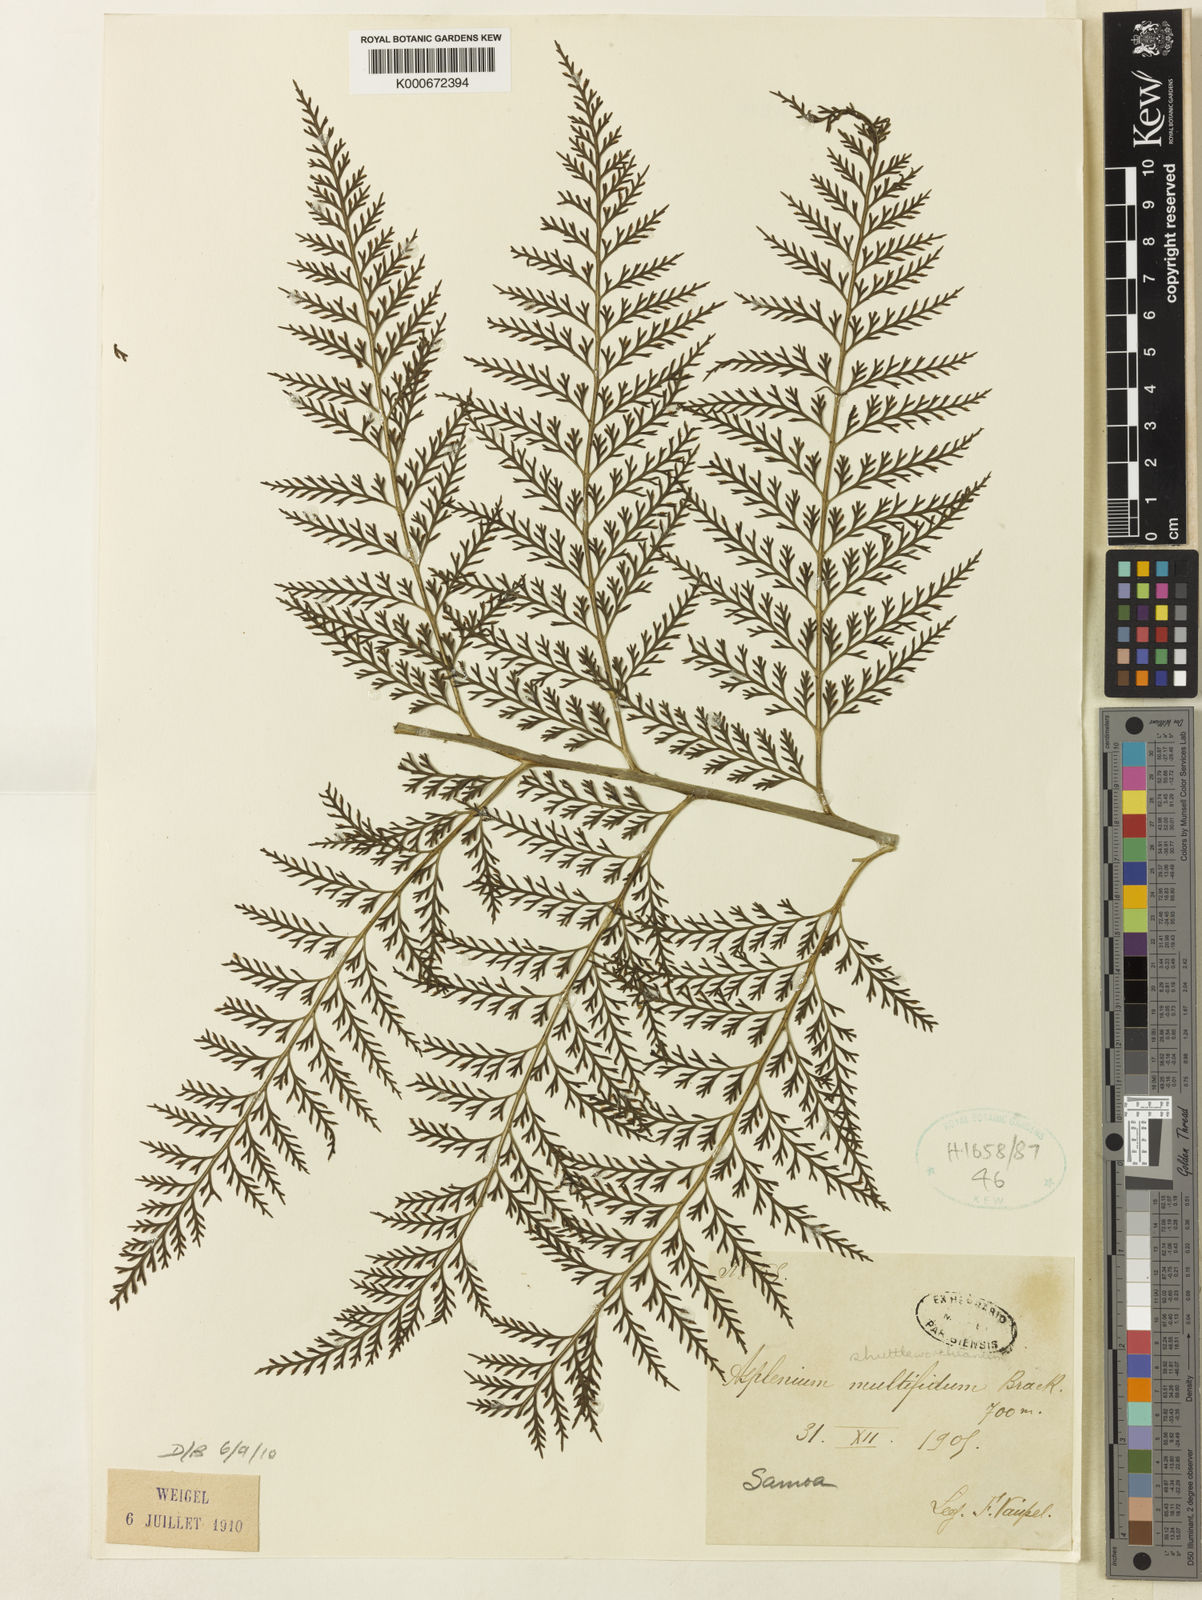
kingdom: Plantae
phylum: Tracheophyta
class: Polypodiopsida
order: Polypodiales
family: Aspleniaceae
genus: Asplenium
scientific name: Asplenium shuttleworthianum
